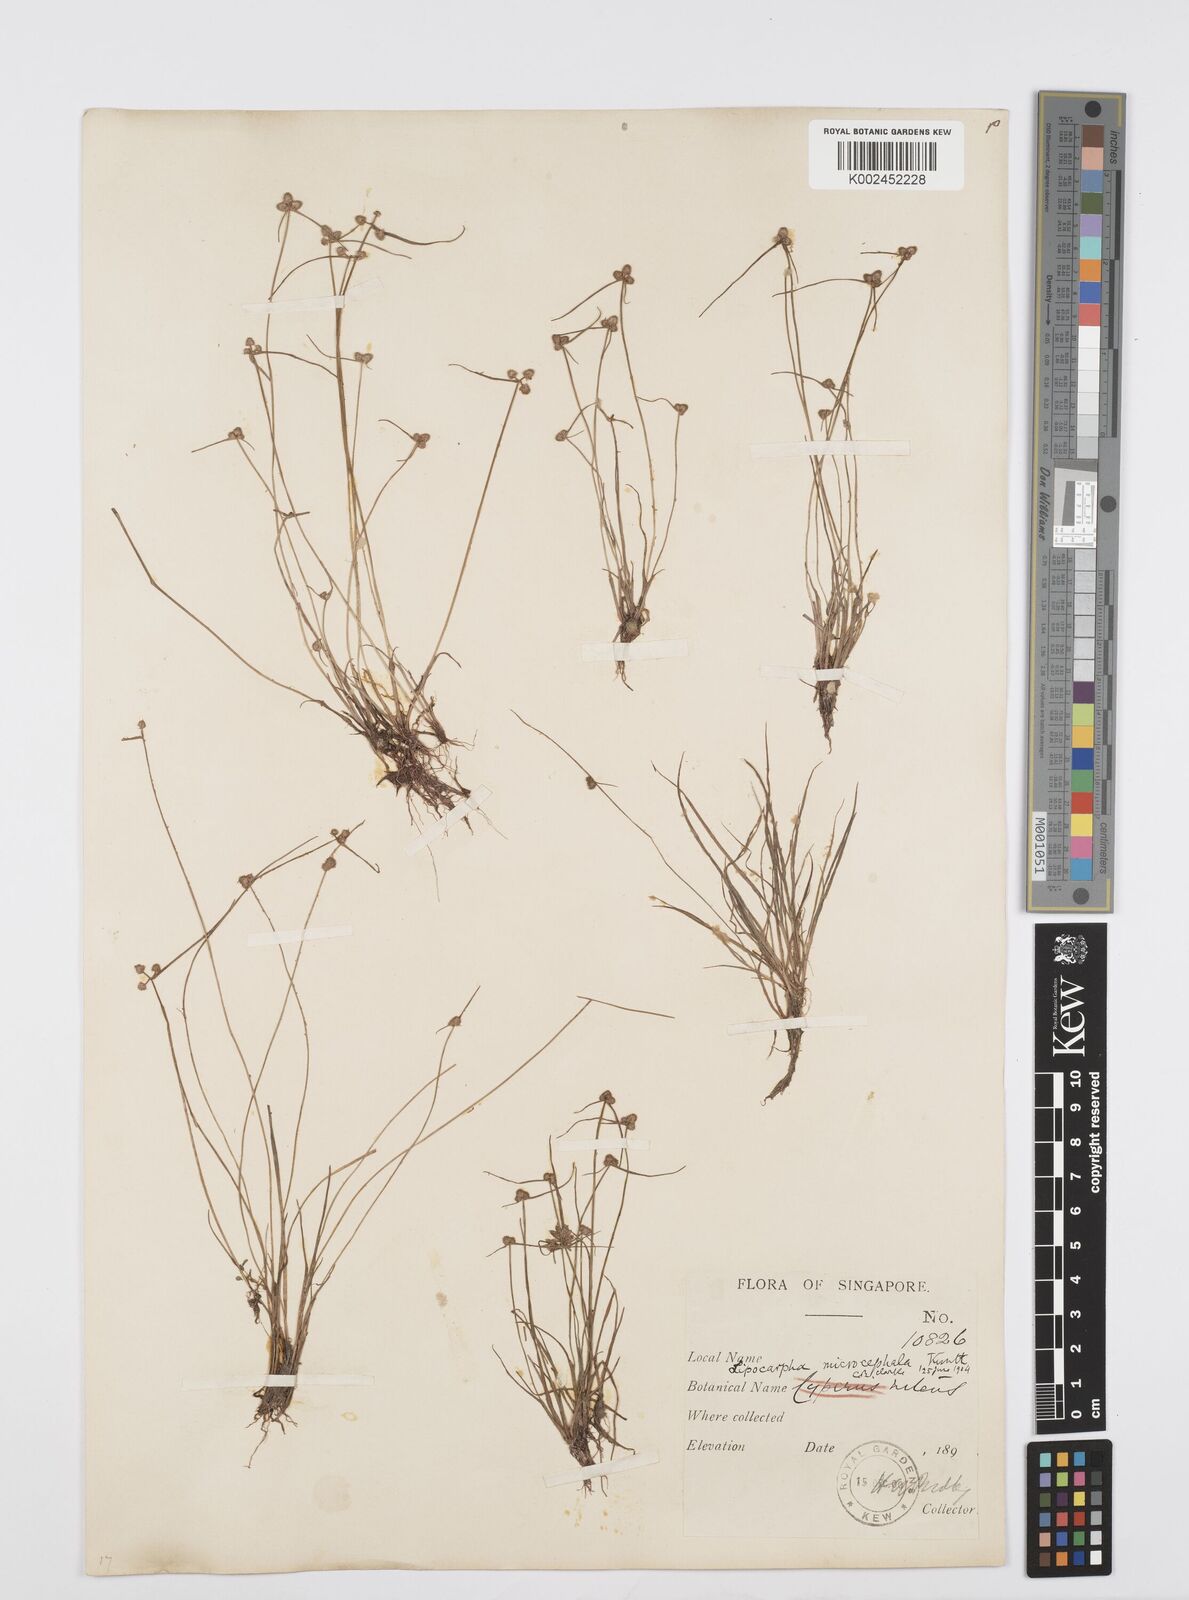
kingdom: Plantae
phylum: Tracheophyta
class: Liliopsida
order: Poales
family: Cyperaceae
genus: Cyperus
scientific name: Cyperus microcephalus
